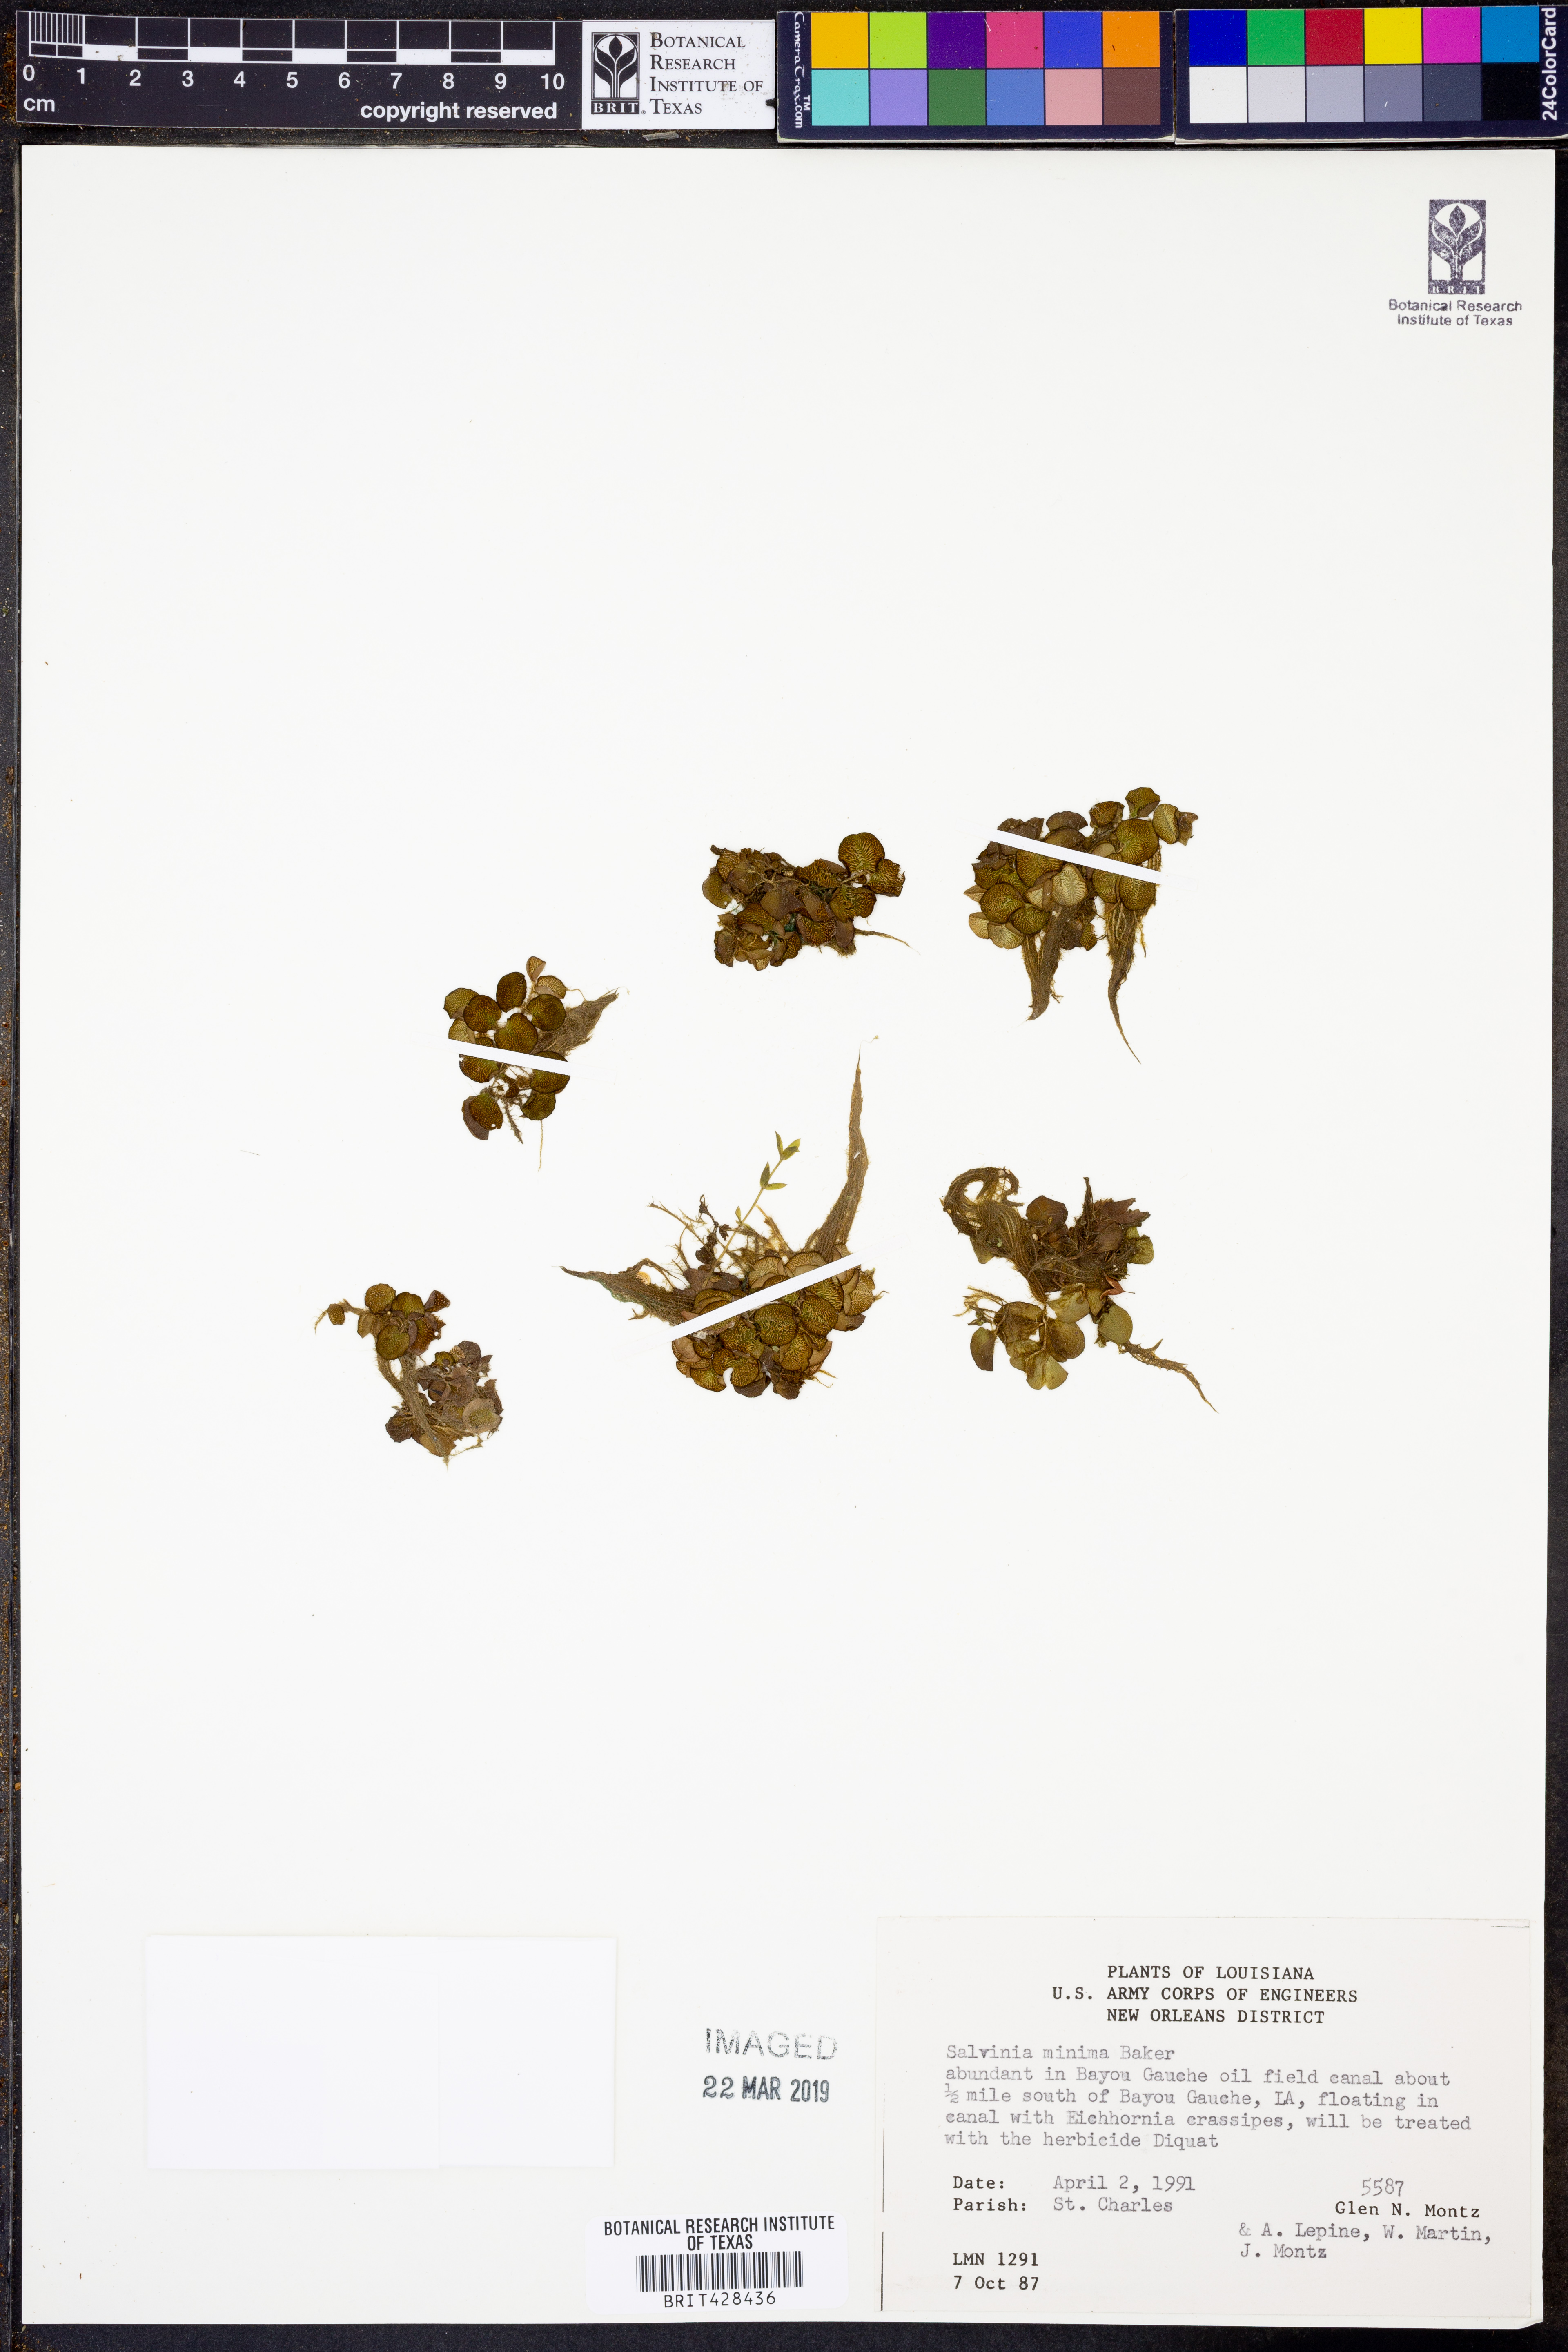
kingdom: Plantae
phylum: Tracheophyta
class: Polypodiopsida
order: Salviniales
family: Salviniaceae
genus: Salvinia
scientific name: Salvinia minima
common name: Water spangles
